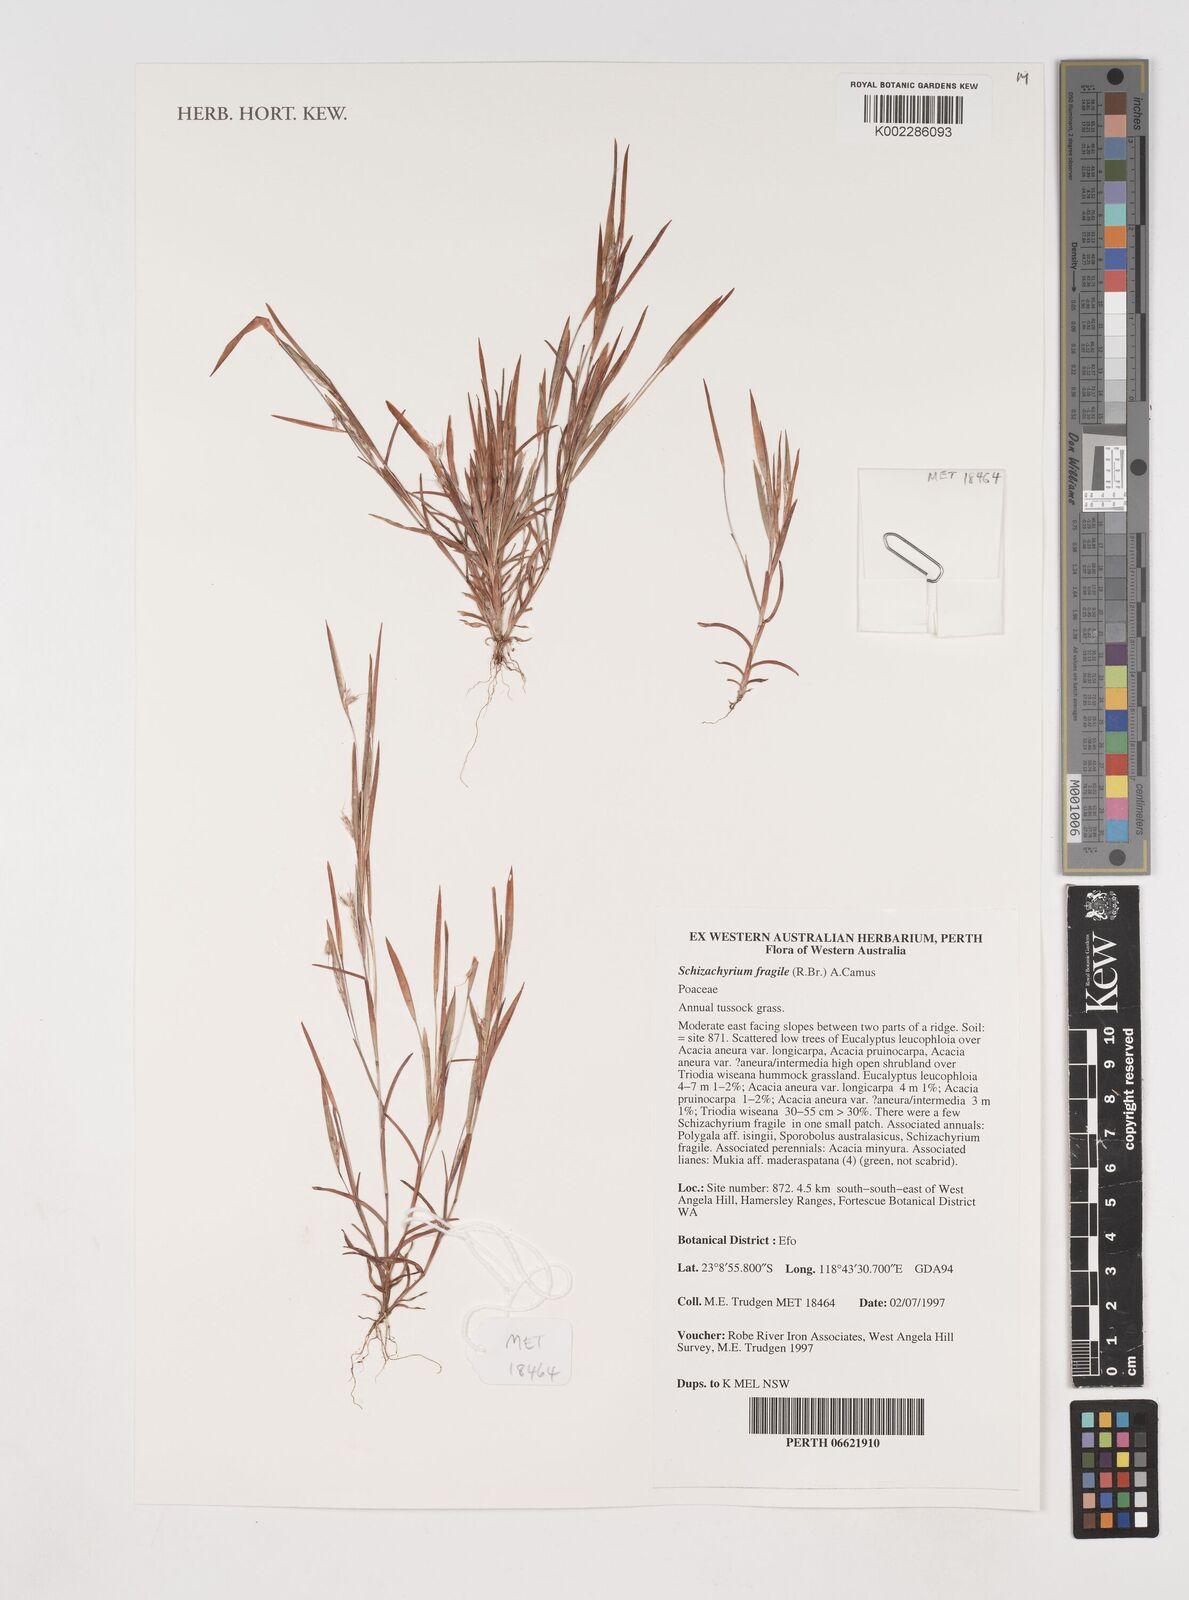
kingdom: Plantae
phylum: Tracheophyta
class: Liliopsida
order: Poales
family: Poaceae
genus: Schizachyrium
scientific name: Schizachyrium fragile
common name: Red spathe grass
